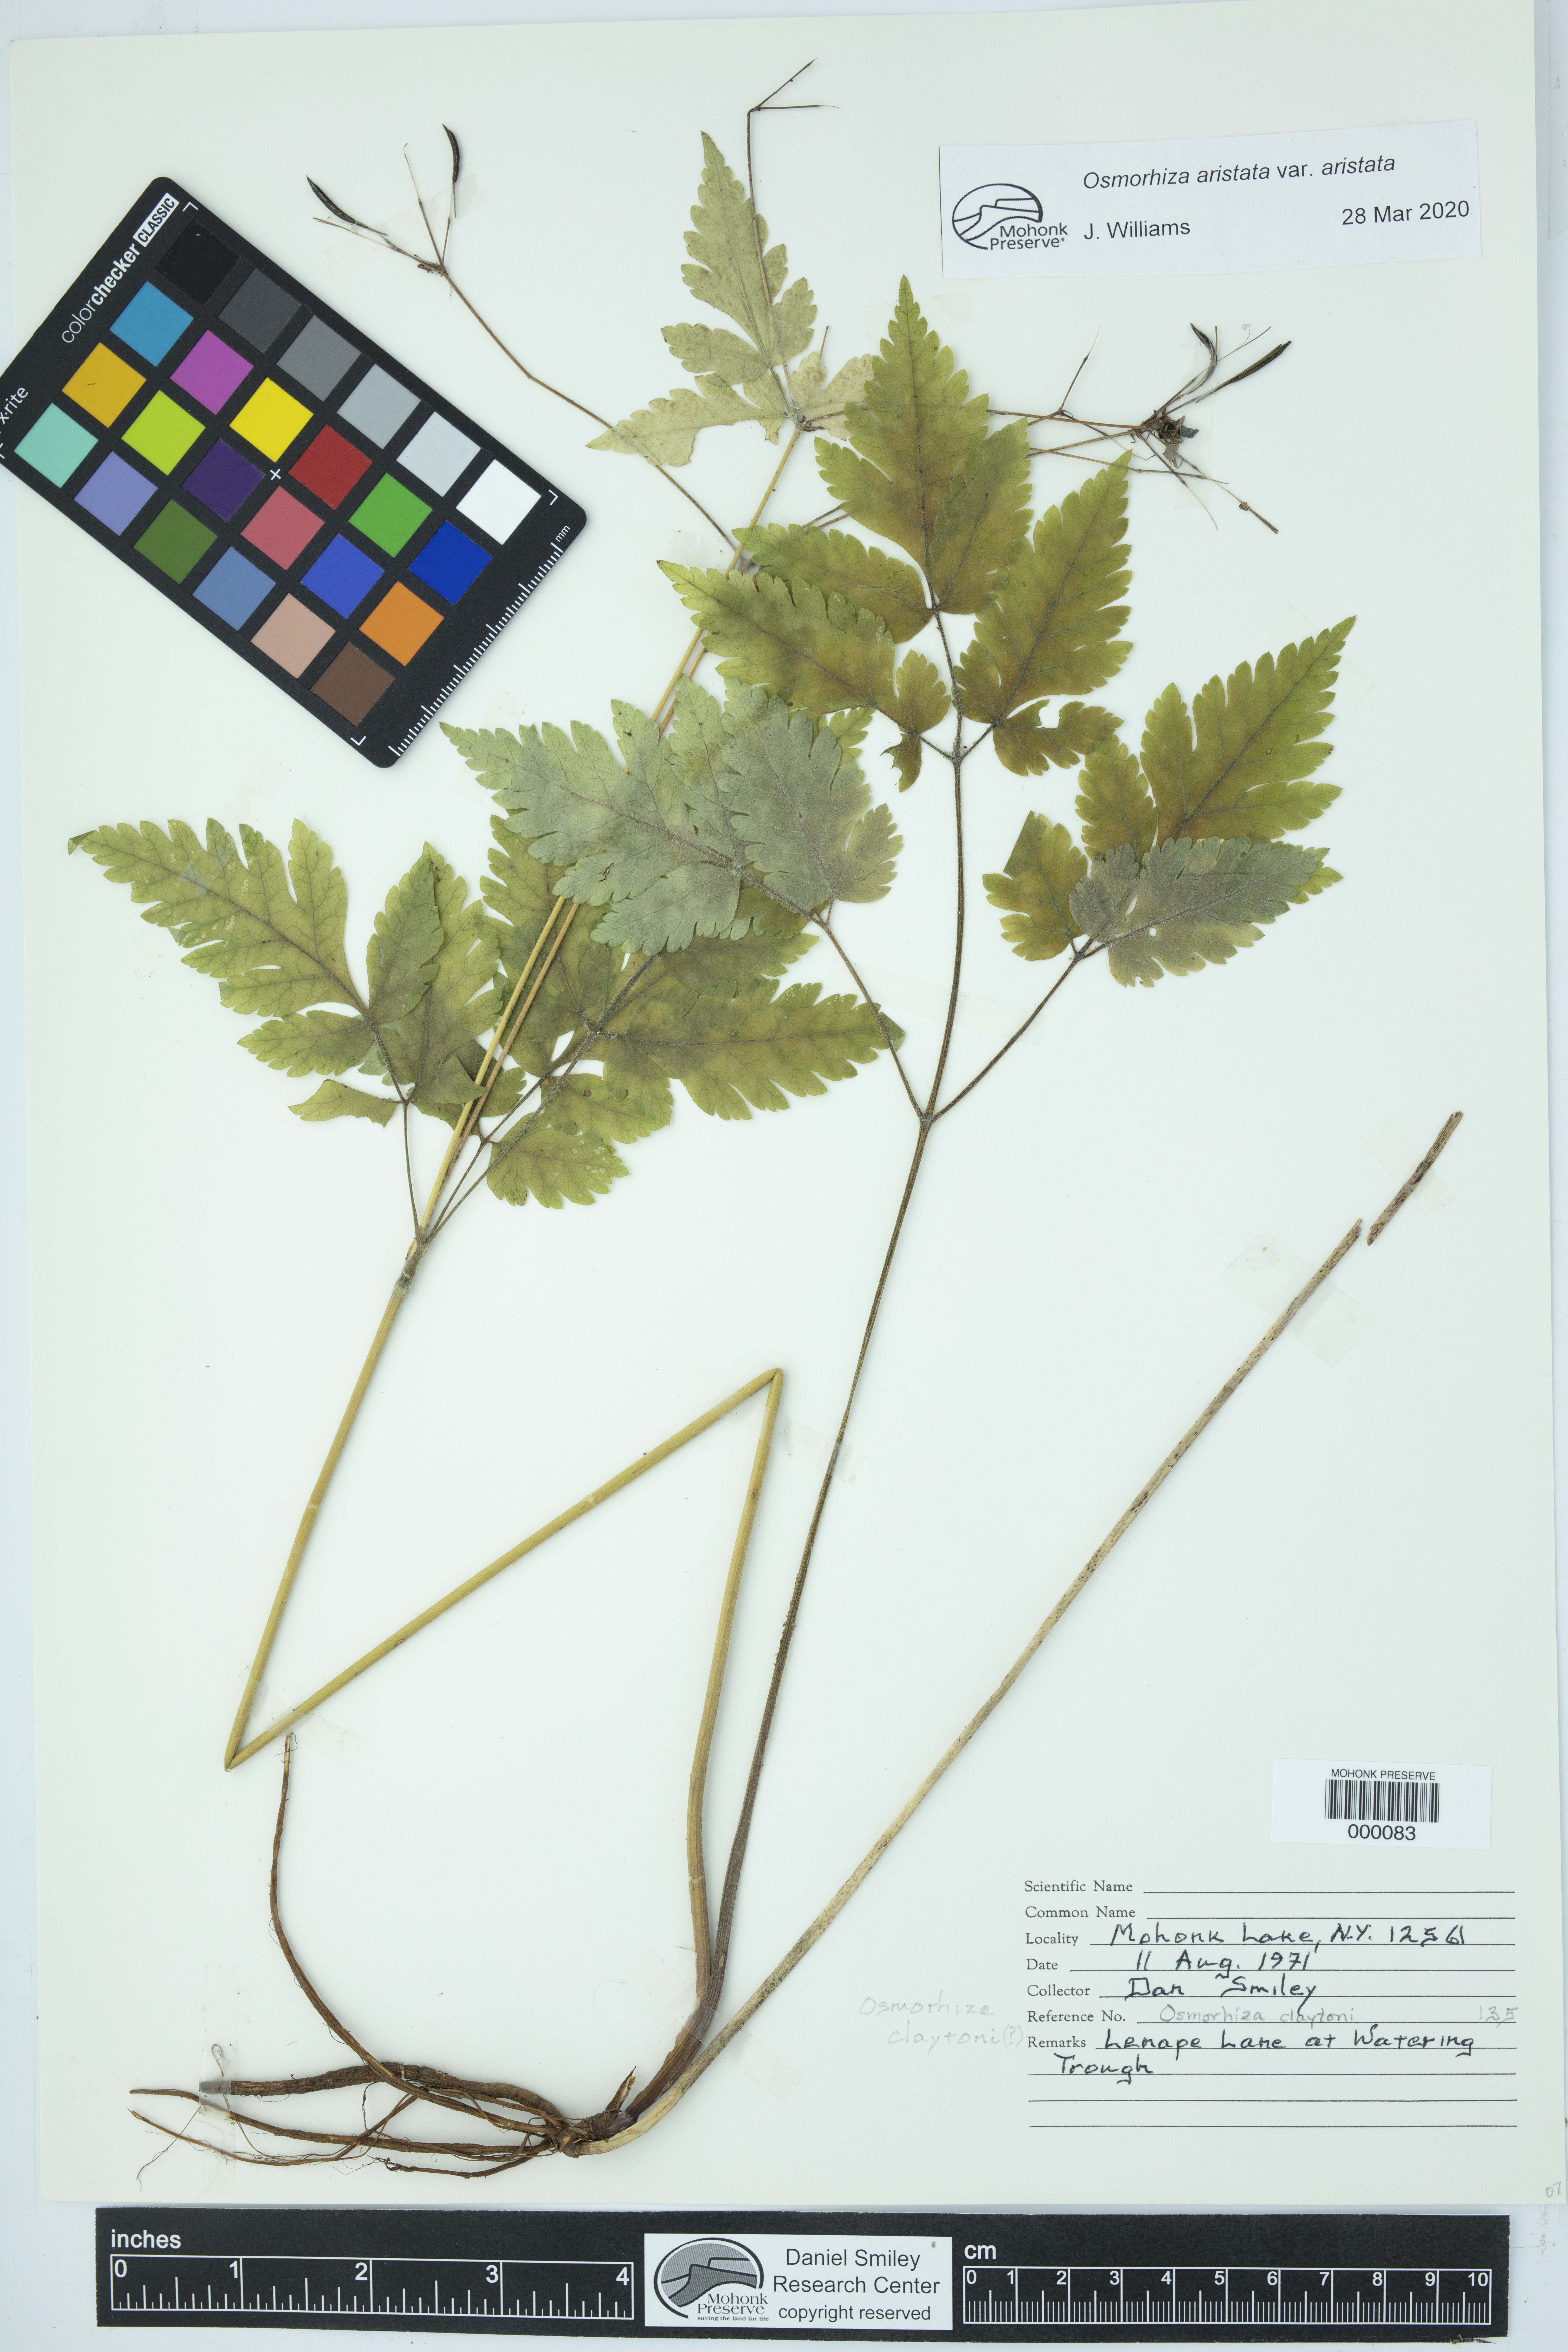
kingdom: Plantae
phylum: Tracheophyta
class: Magnoliopsida
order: Apiales
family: Apiaceae
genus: Osmorhiza
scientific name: Osmorhiza aristata
